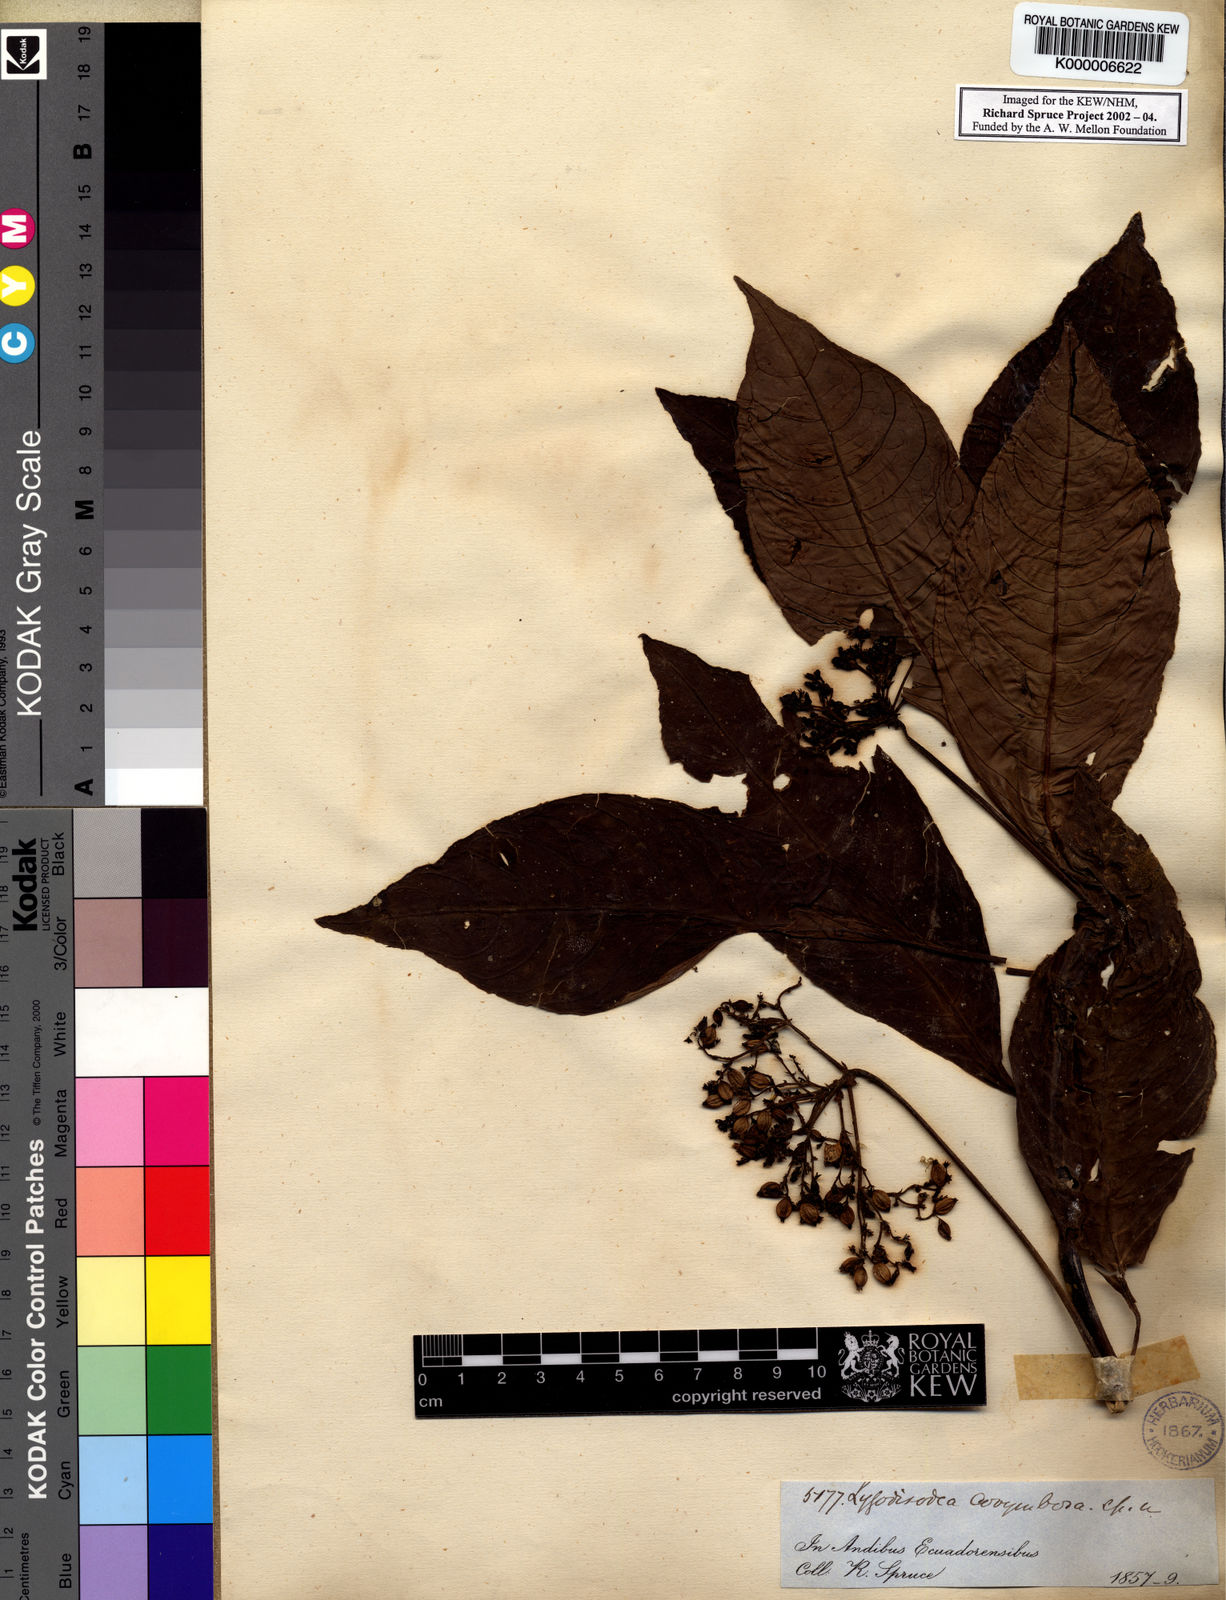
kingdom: Plantae
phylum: Tracheophyta
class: Magnoliopsida
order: Gentianales
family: Rubiaceae
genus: Psychotria
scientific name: Psychotria
